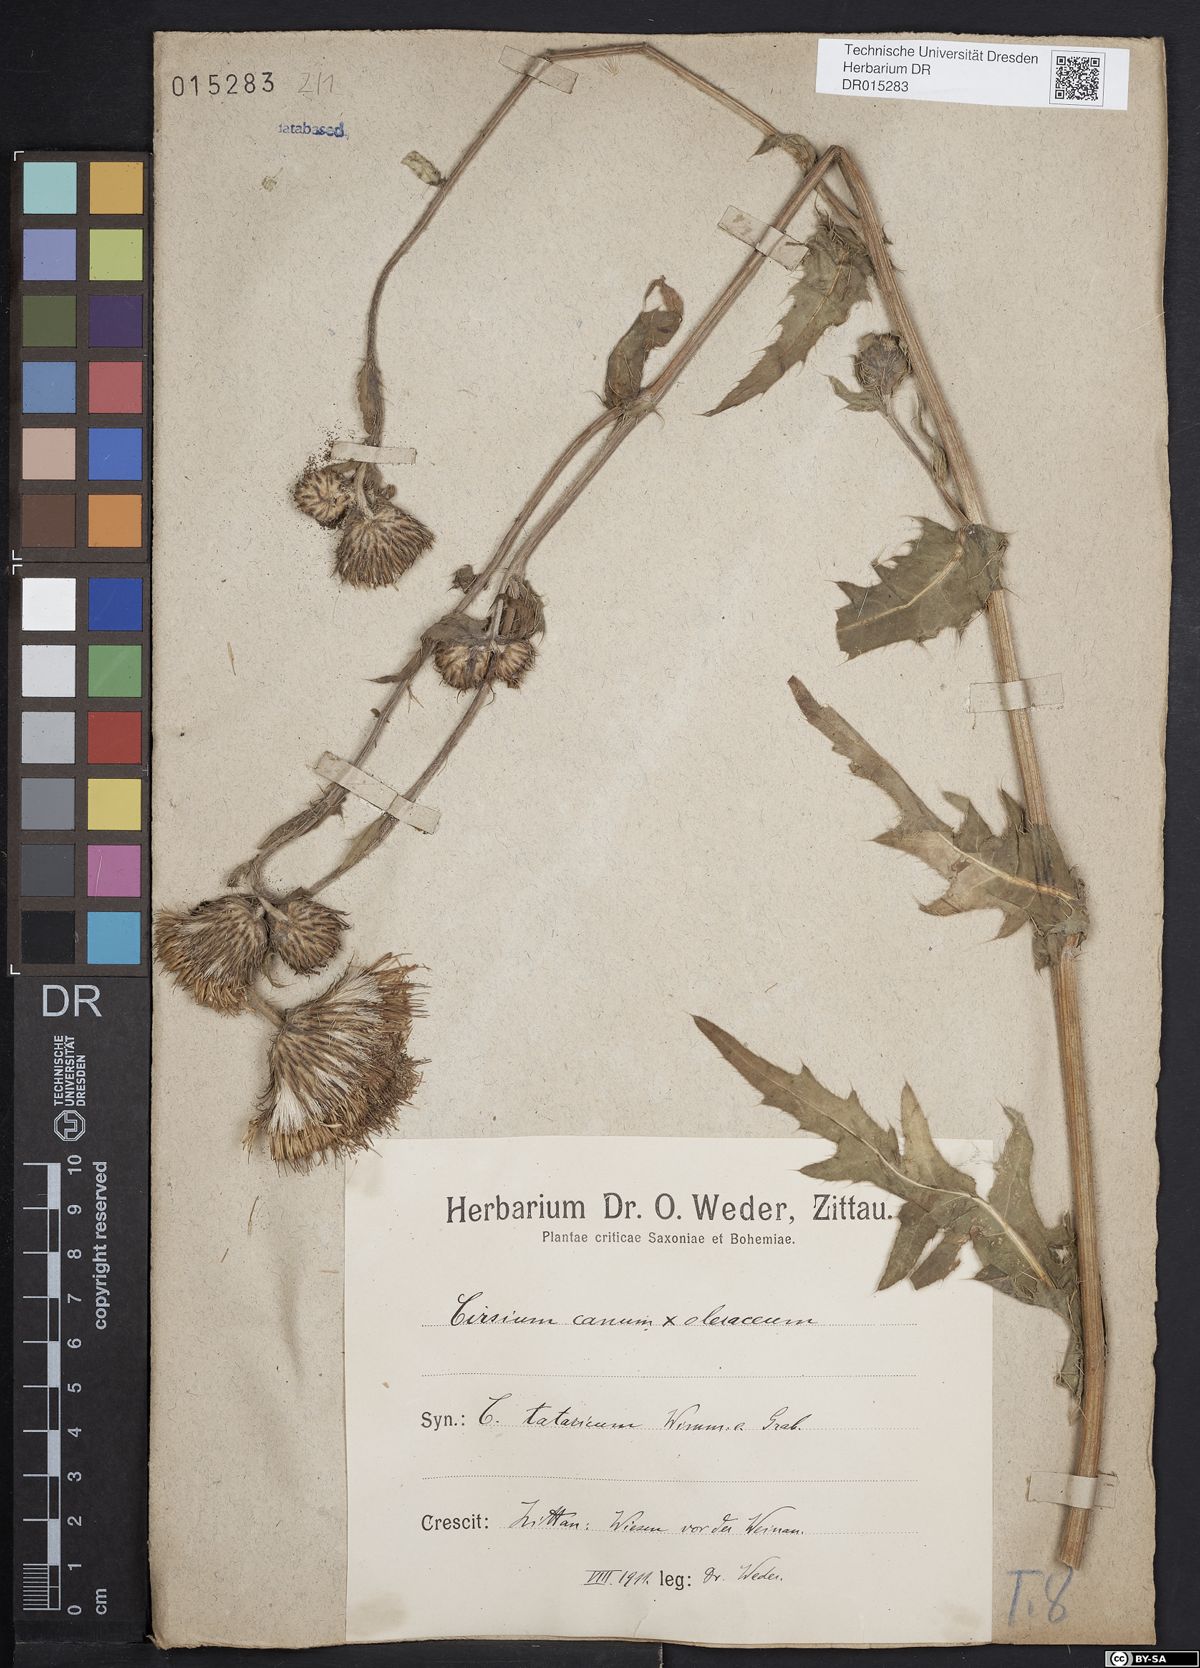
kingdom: Plantae
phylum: Tracheophyta
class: Magnoliopsida
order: Asterales
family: Asteraceae
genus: Cirsium
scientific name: Cirsium tataricum
